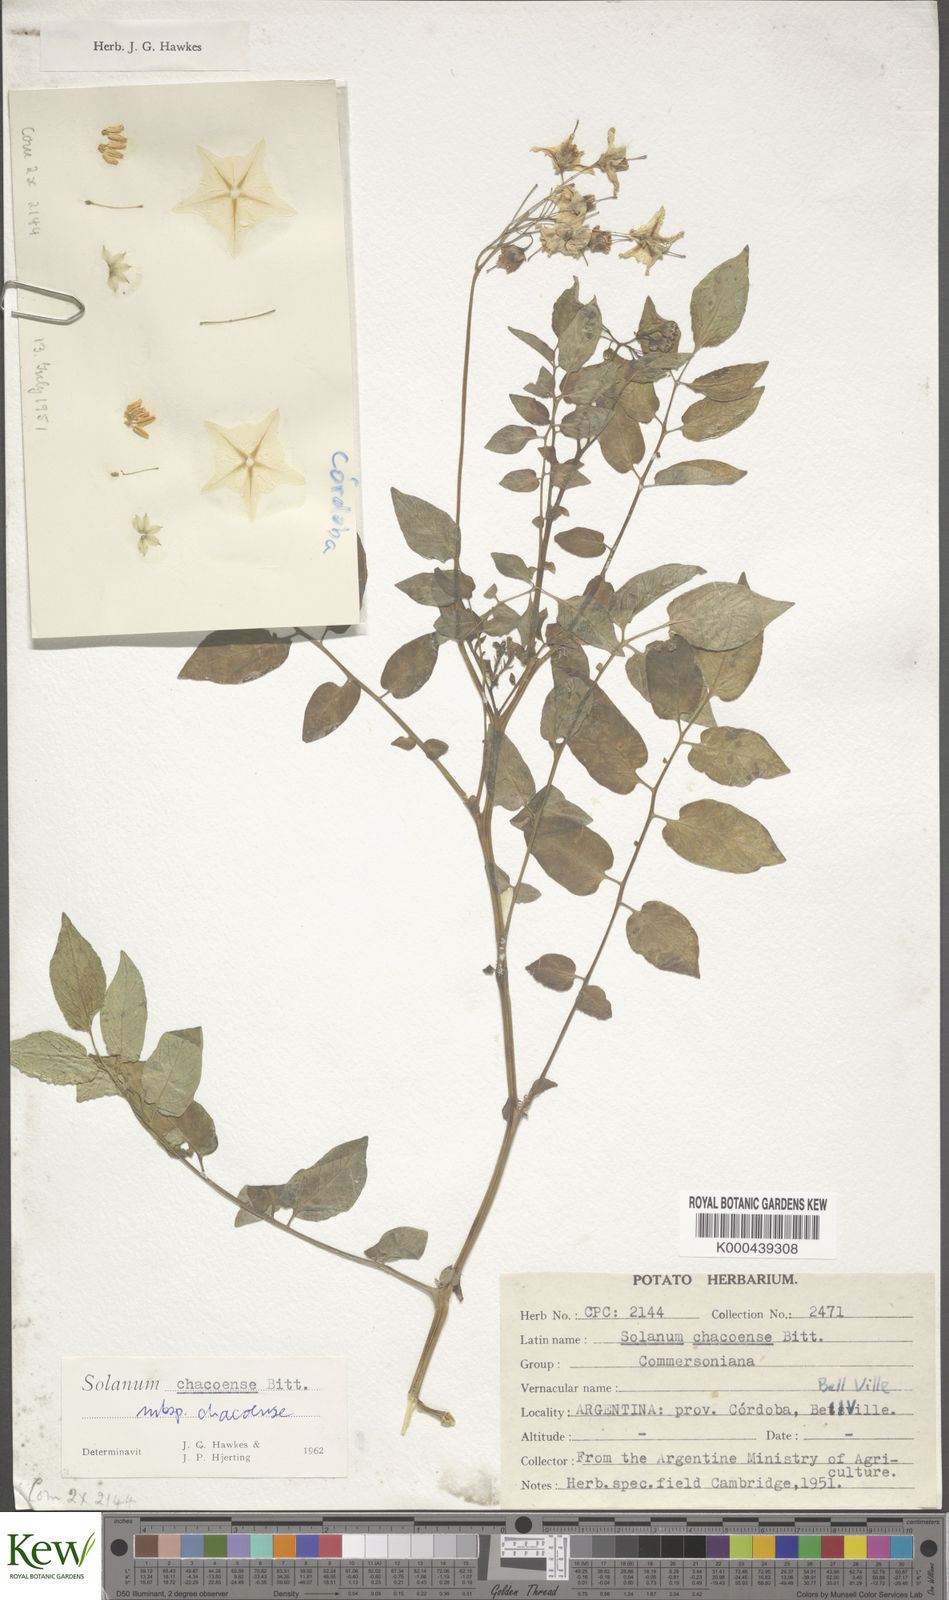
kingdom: Plantae
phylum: Tracheophyta
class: Magnoliopsida
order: Solanales
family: Solanaceae
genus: Solanum
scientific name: Solanum chacoense
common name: Chaco potato
